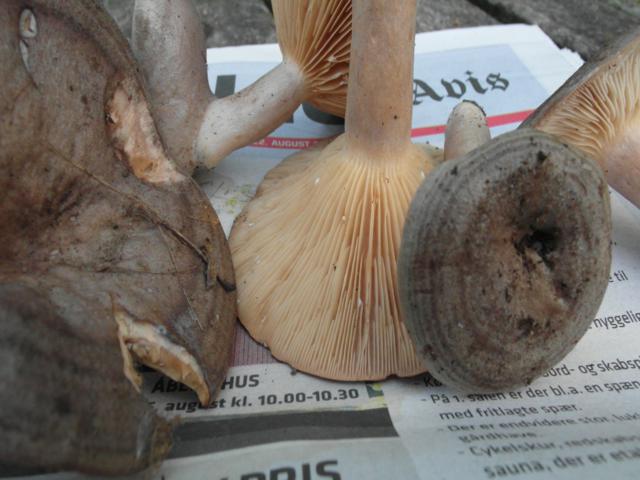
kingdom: Fungi
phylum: Basidiomycota
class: Agaricomycetes
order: Russulales
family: Russulaceae
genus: Lactarius
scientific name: Lactarius circellatus
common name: avnbøg-mælkehat
